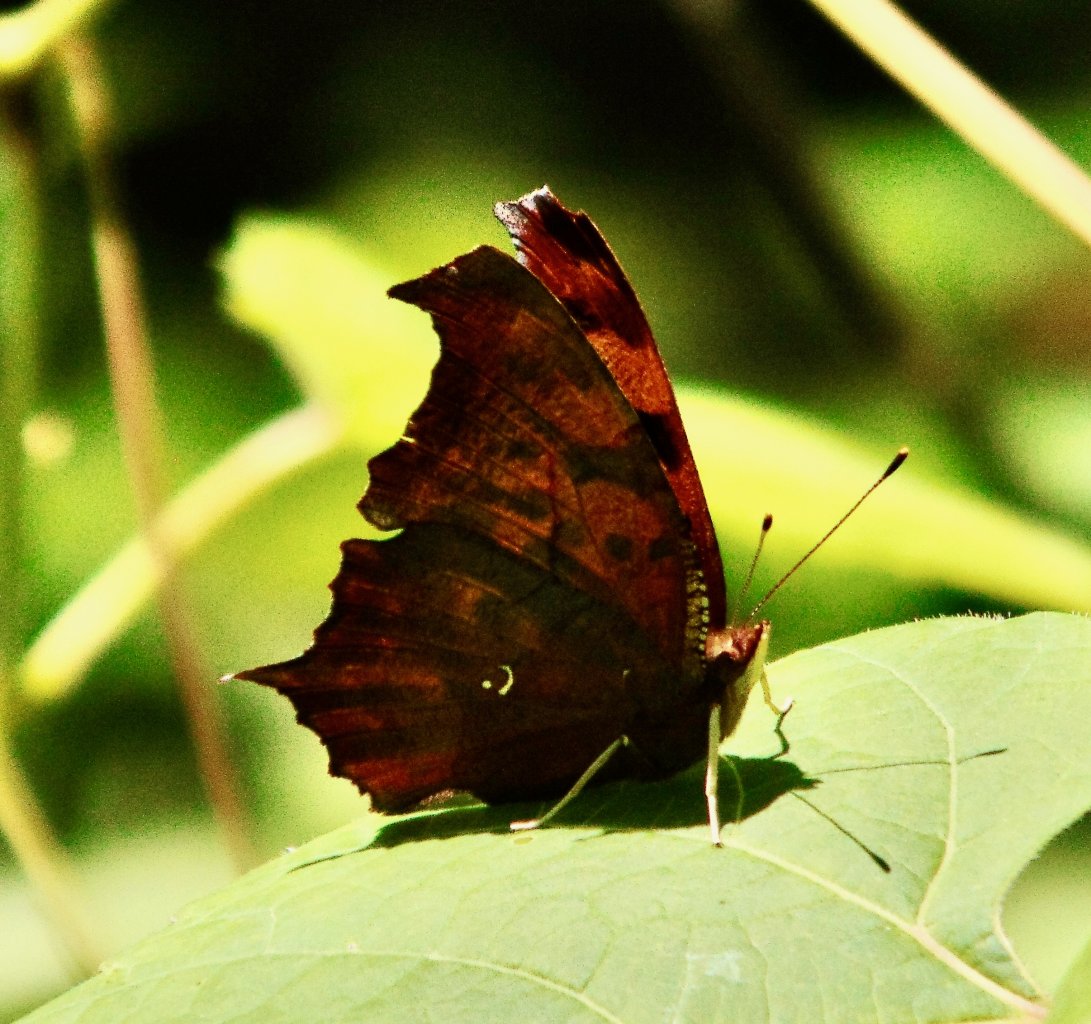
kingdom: Animalia
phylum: Arthropoda
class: Insecta
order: Lepidoptera
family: Nymphalidae
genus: Polygonia
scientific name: Polygonia interrogationis
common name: Question Mark
